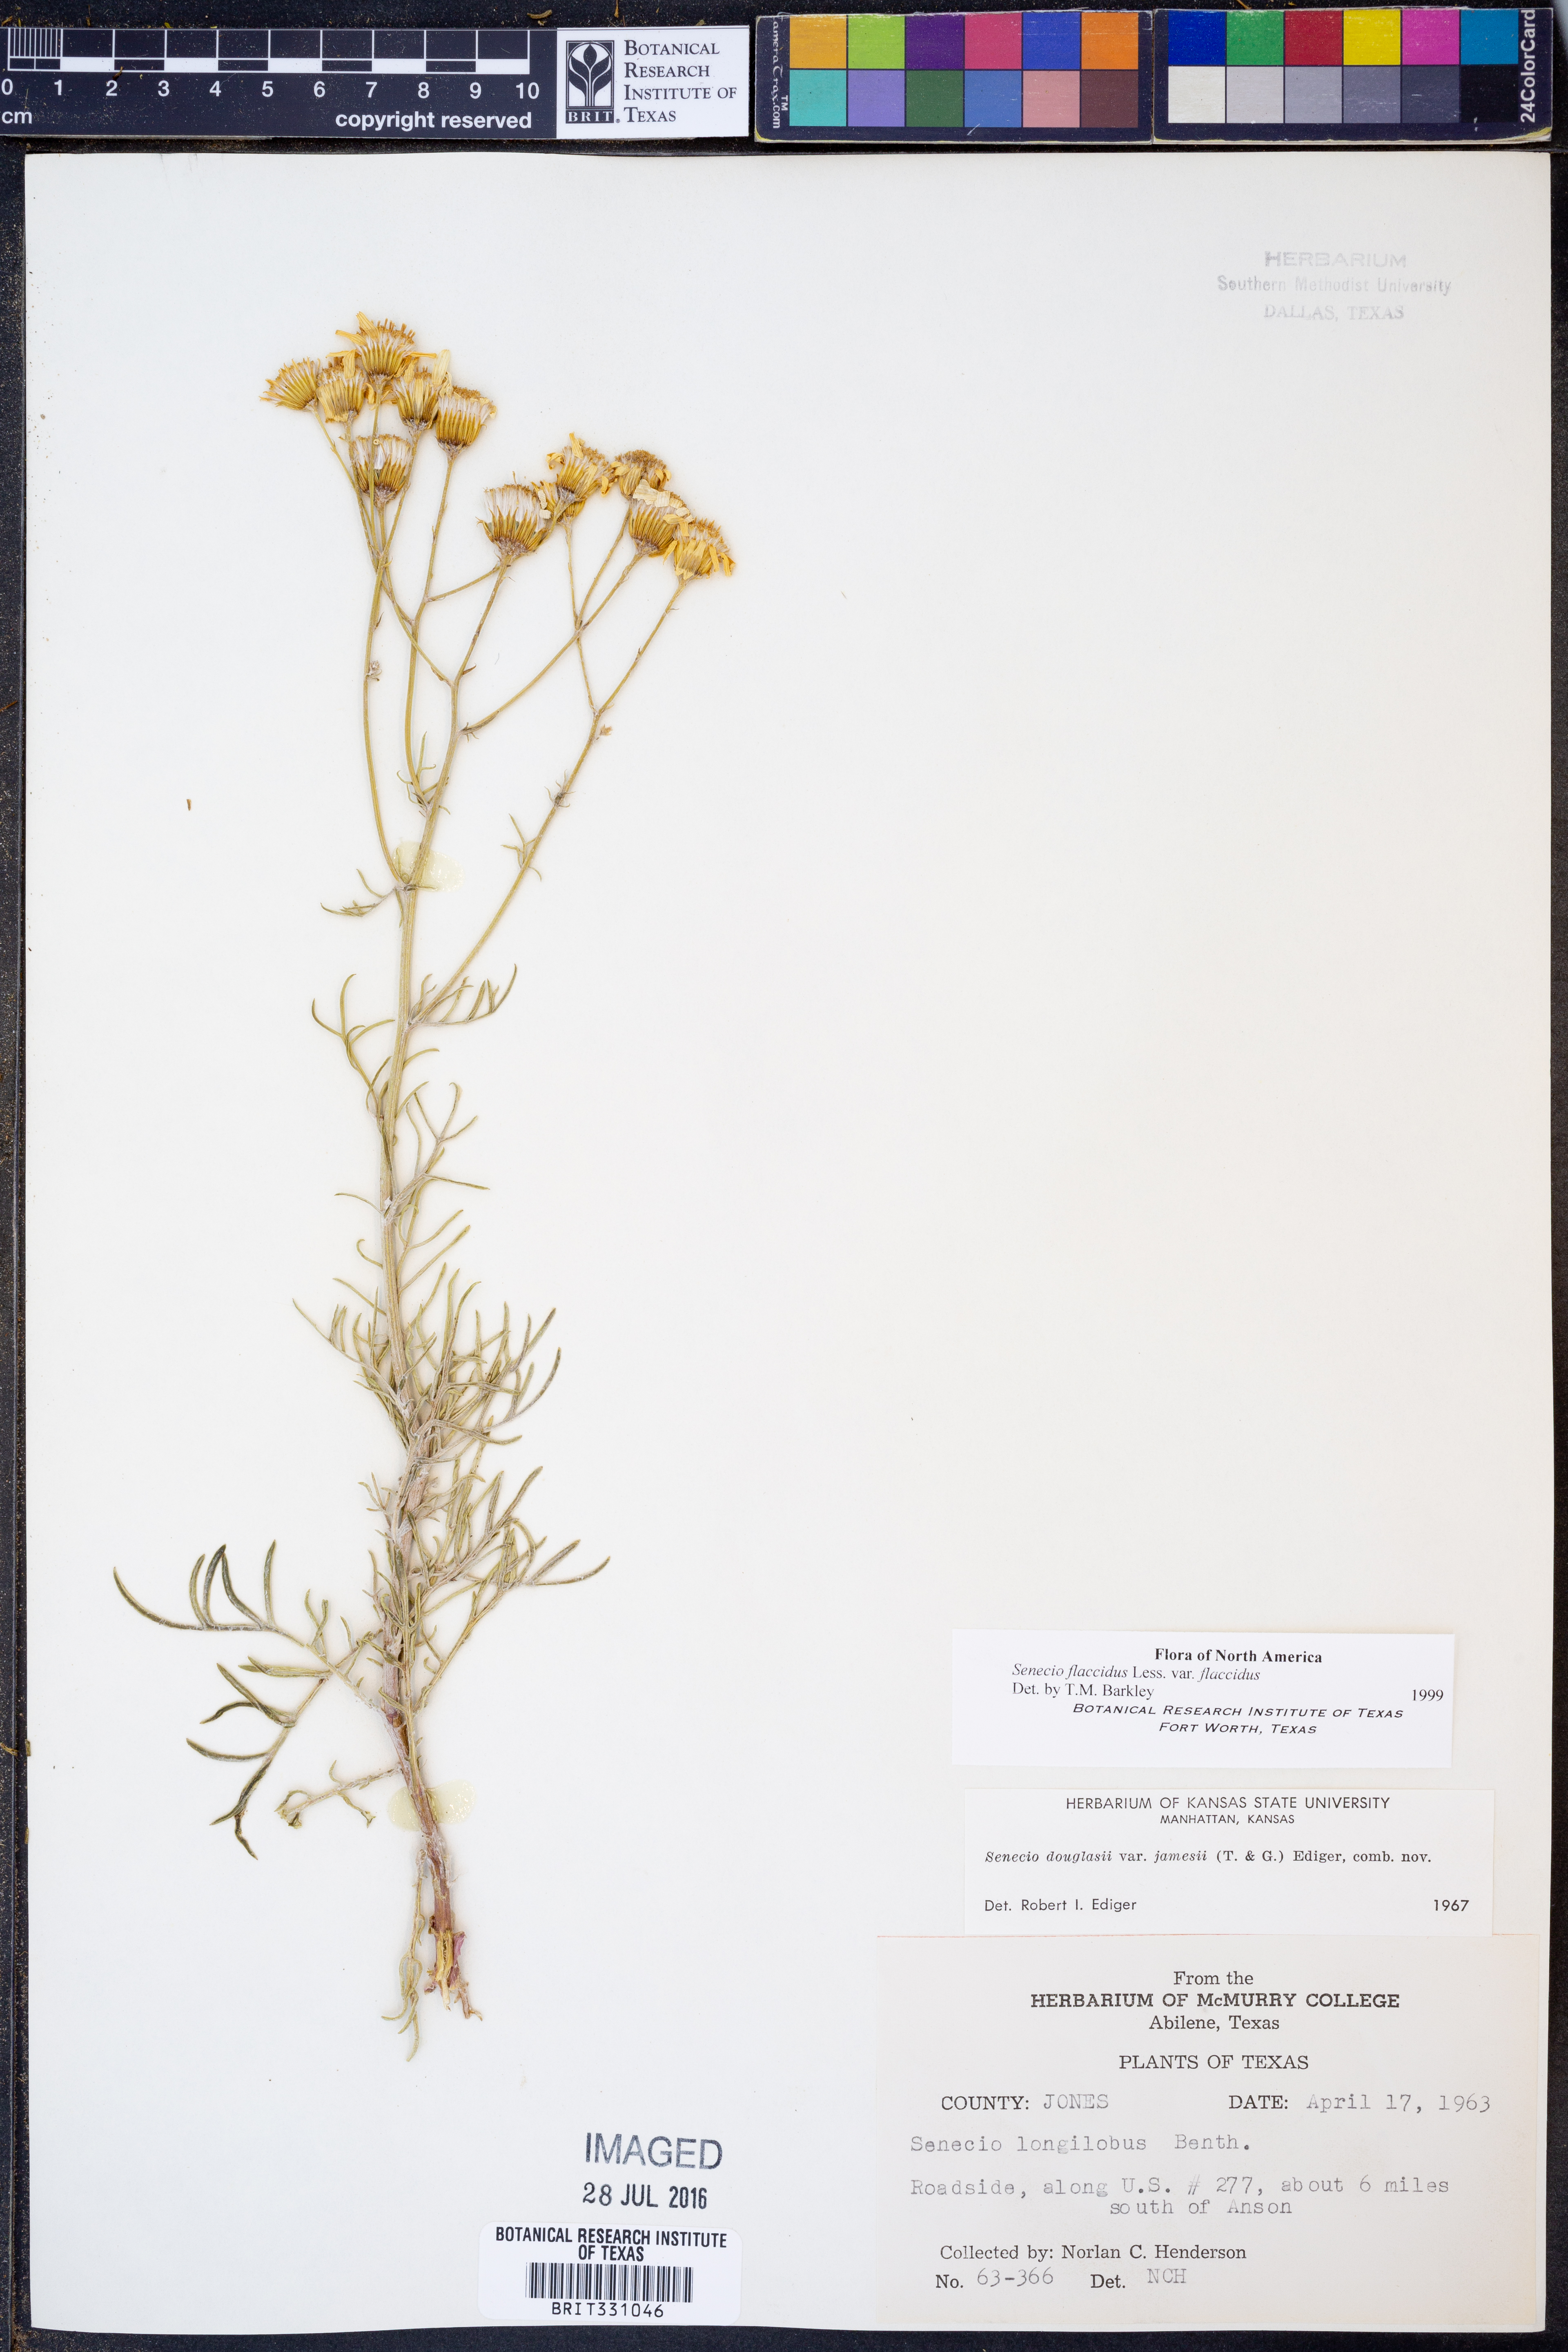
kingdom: Plantae
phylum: Tracheophyta
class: Magnoliopsida
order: Asterales
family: Asteraceae
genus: Senecio
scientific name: Senecio flaccidus
